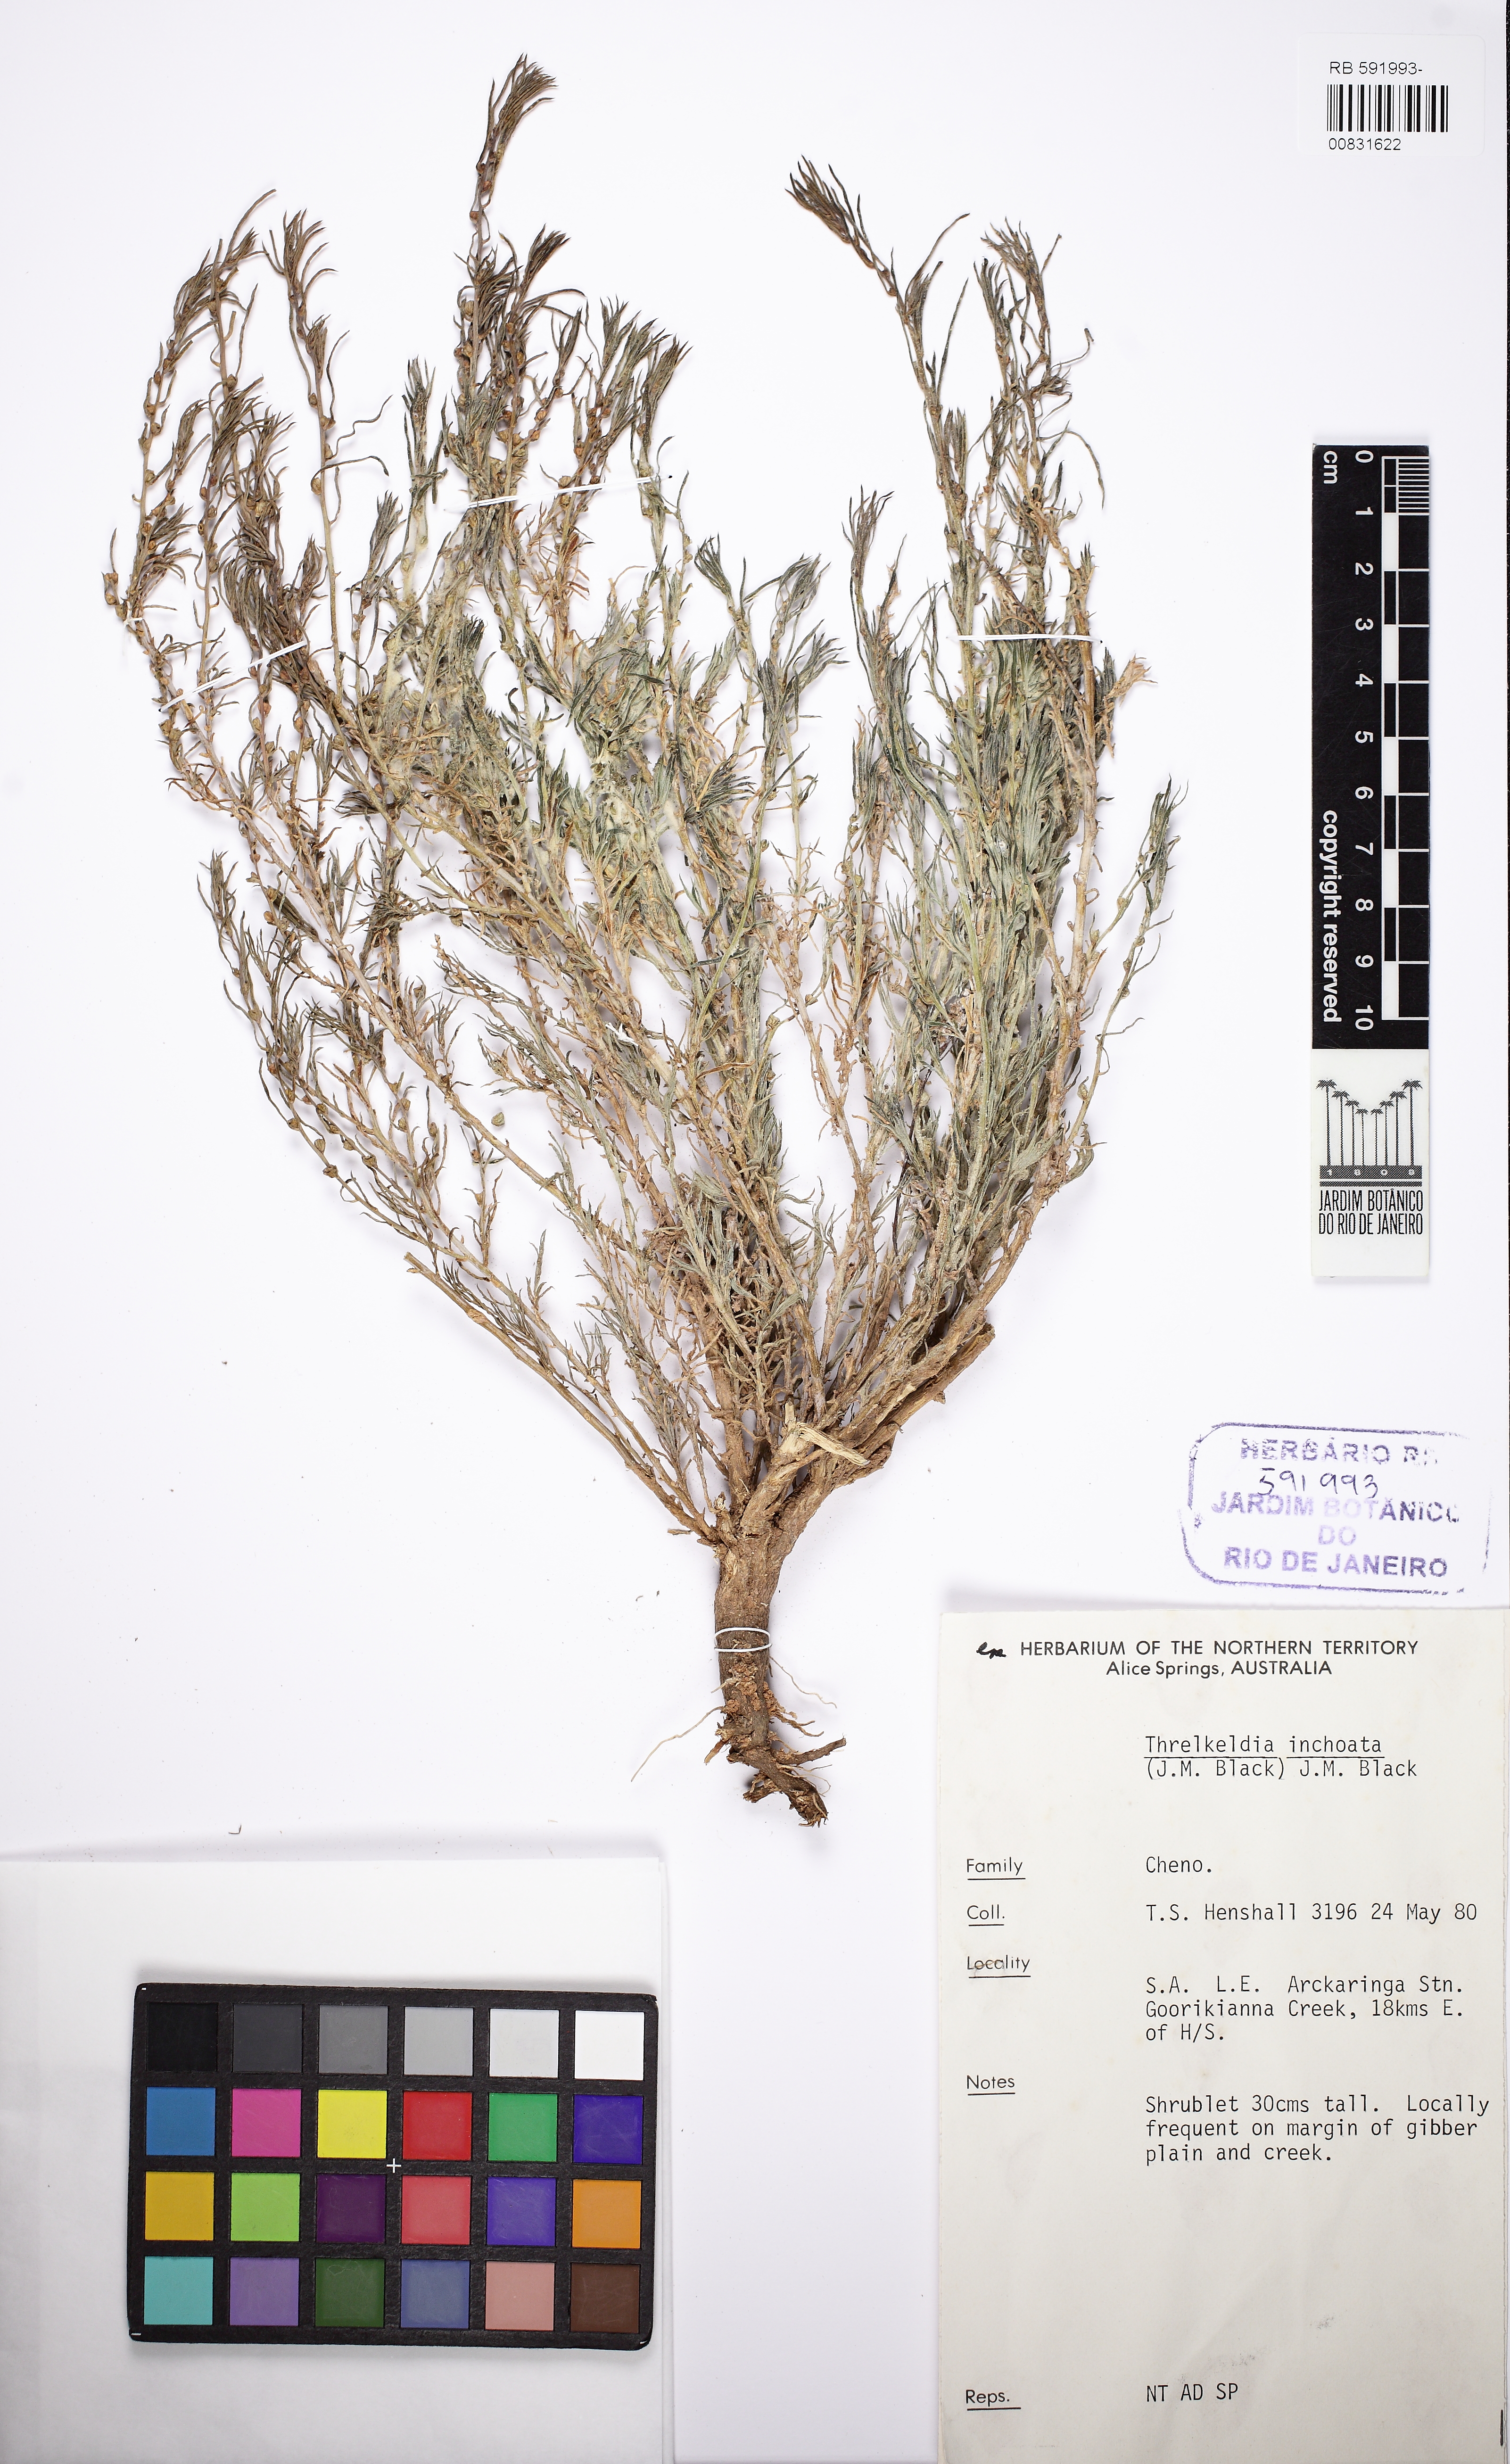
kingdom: Plantae
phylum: Tracheophyta
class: Magnoliopsida
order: Caryophyllales
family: Amaranthaceae
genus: Threlkeldia
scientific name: Threlkeldia inchoata
